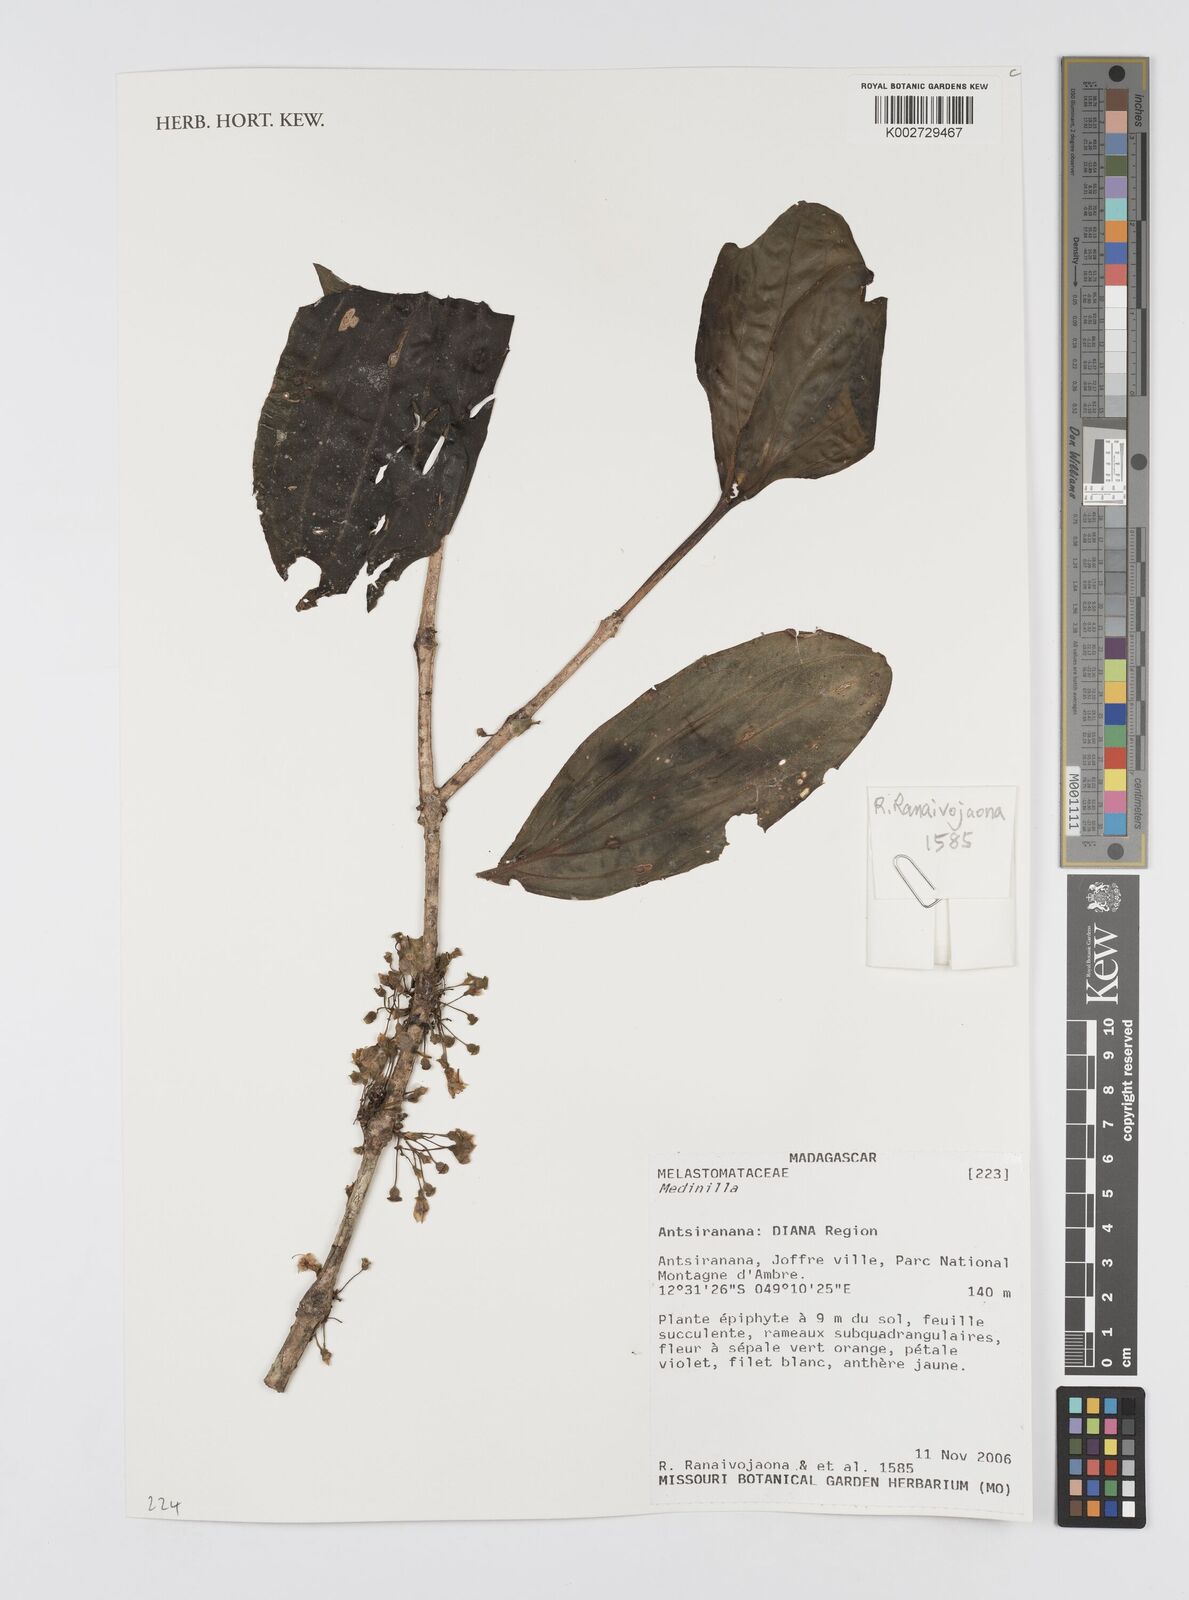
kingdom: Plantae
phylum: Tracheophyta
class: Magnoliopsida
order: Myrtales
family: Melastomataceae
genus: Medinilla
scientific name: Medinilla
